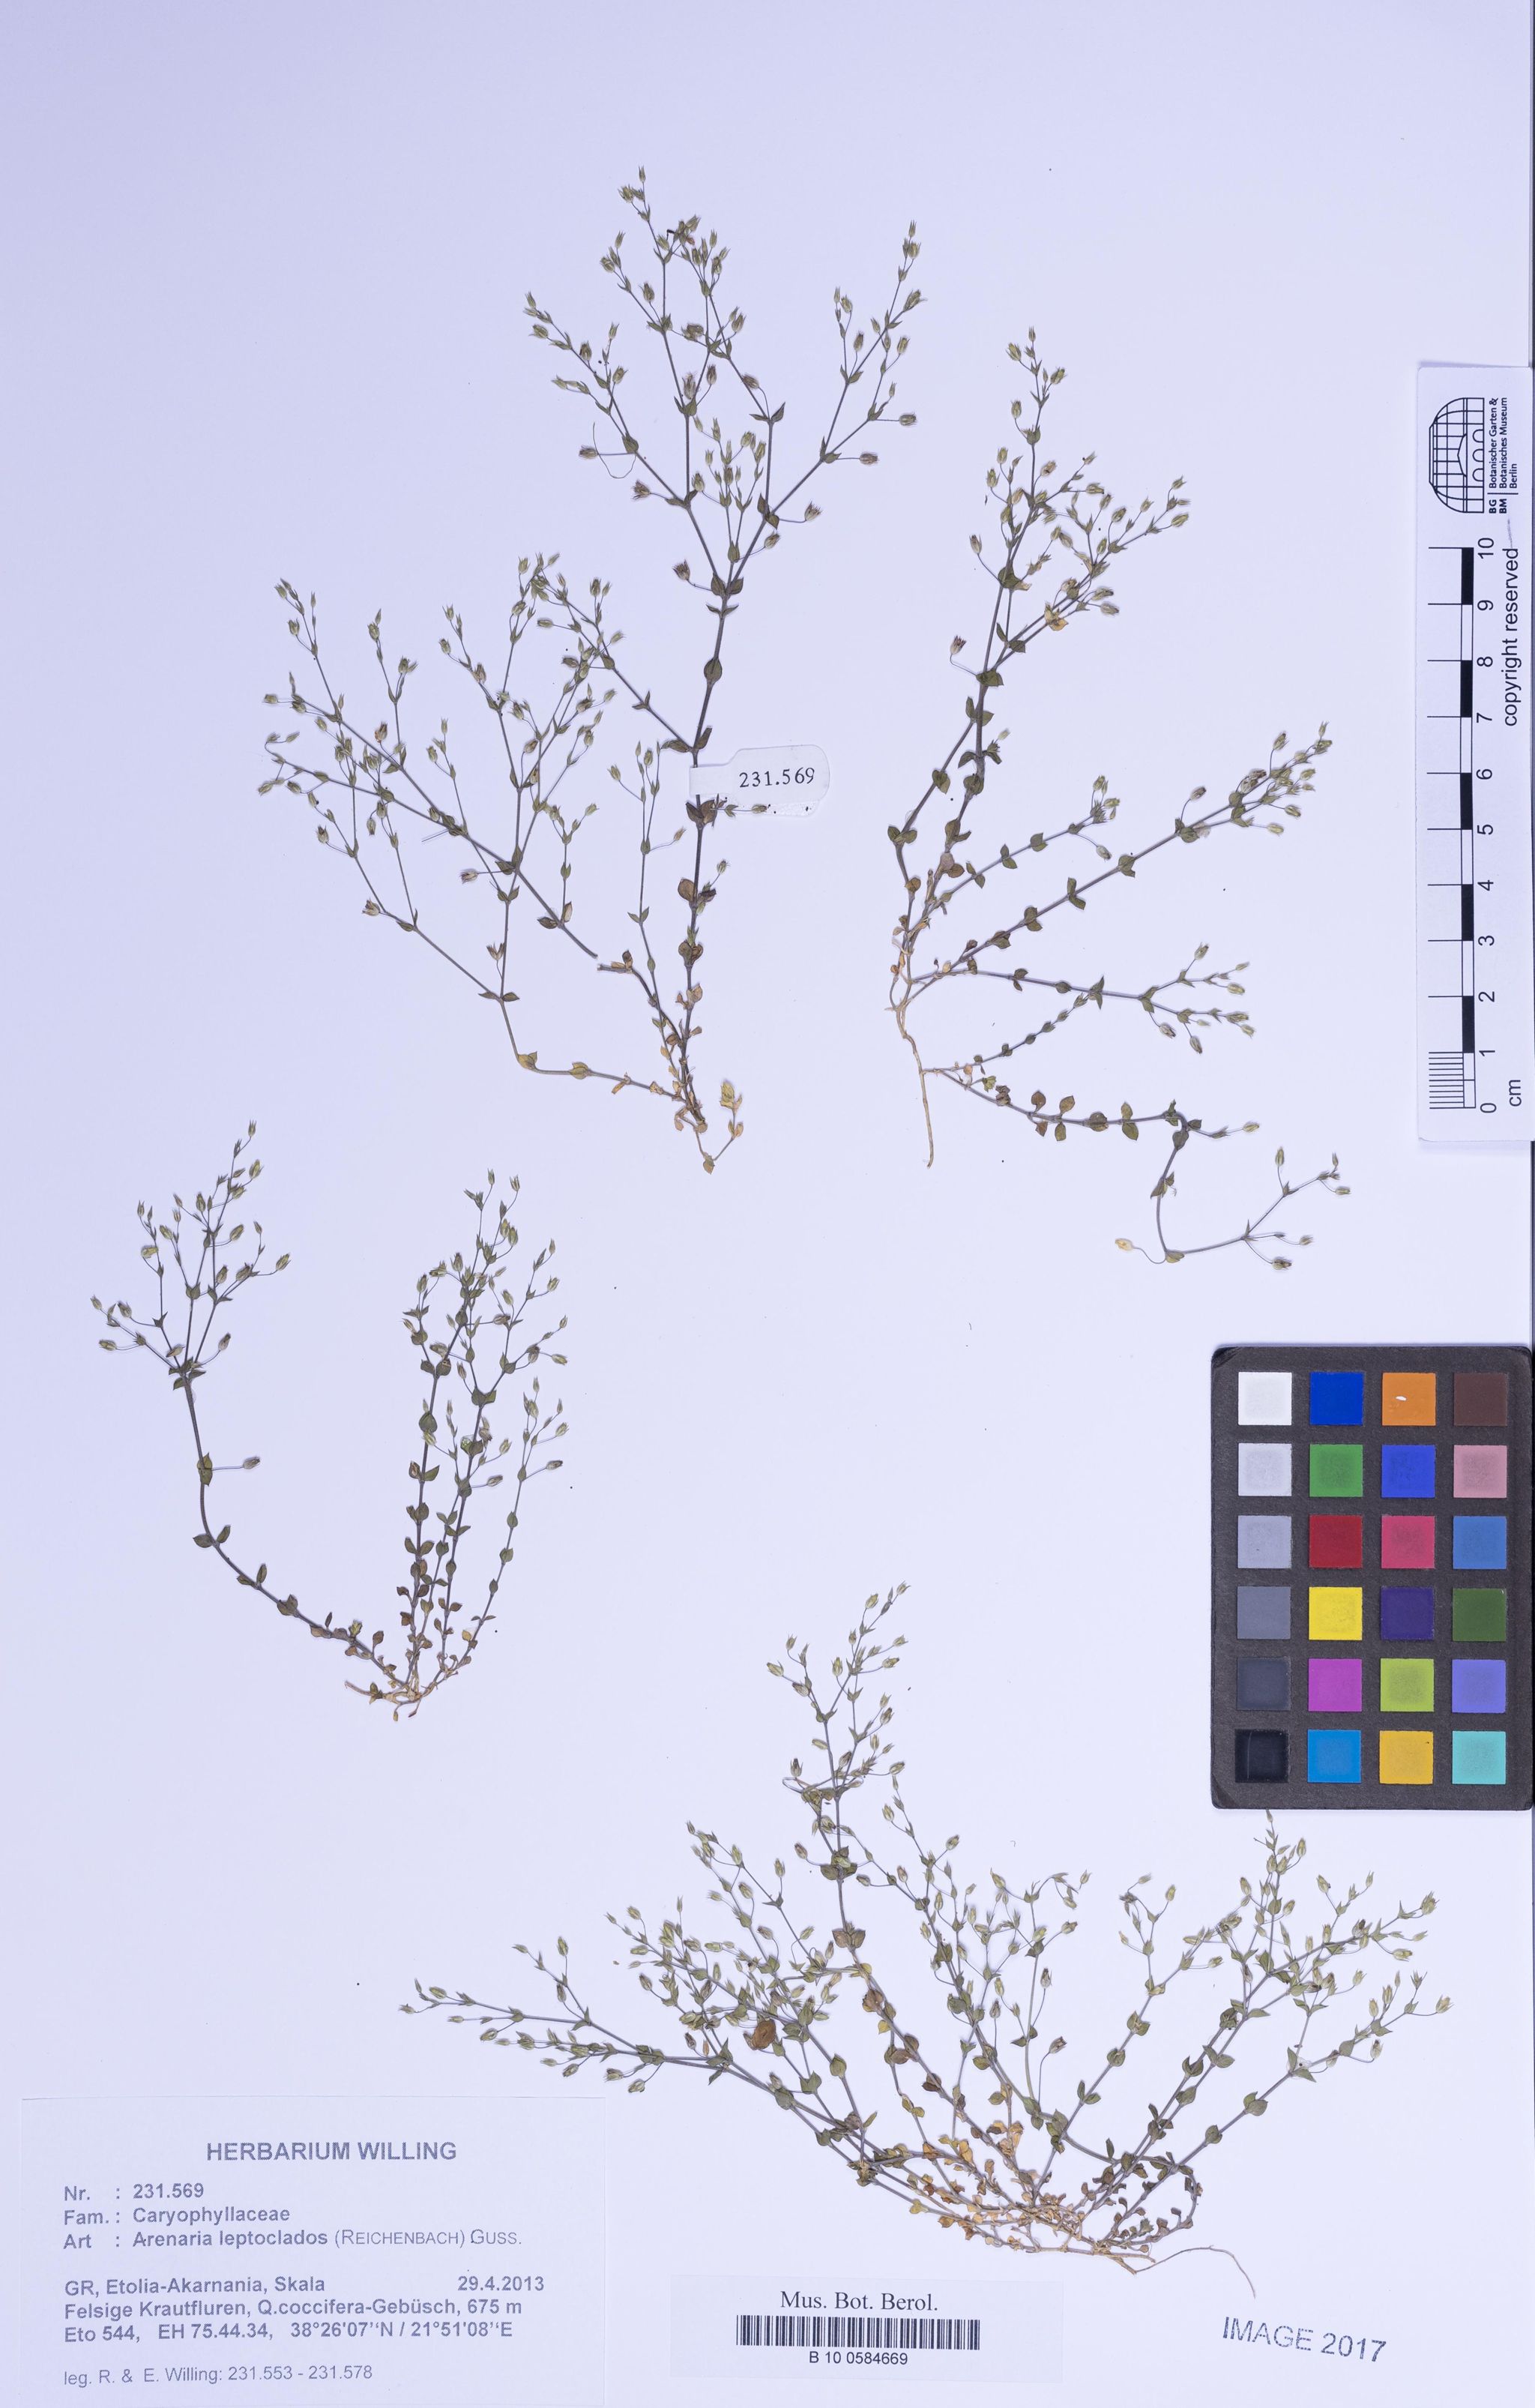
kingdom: Plantae
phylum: Tracheophyta
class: Magnoliopsida
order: Caryophyllales
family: Caryophyllaceae
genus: Arenaria
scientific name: Arenaria leptoclados
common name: Thyme-leaved sandwort
